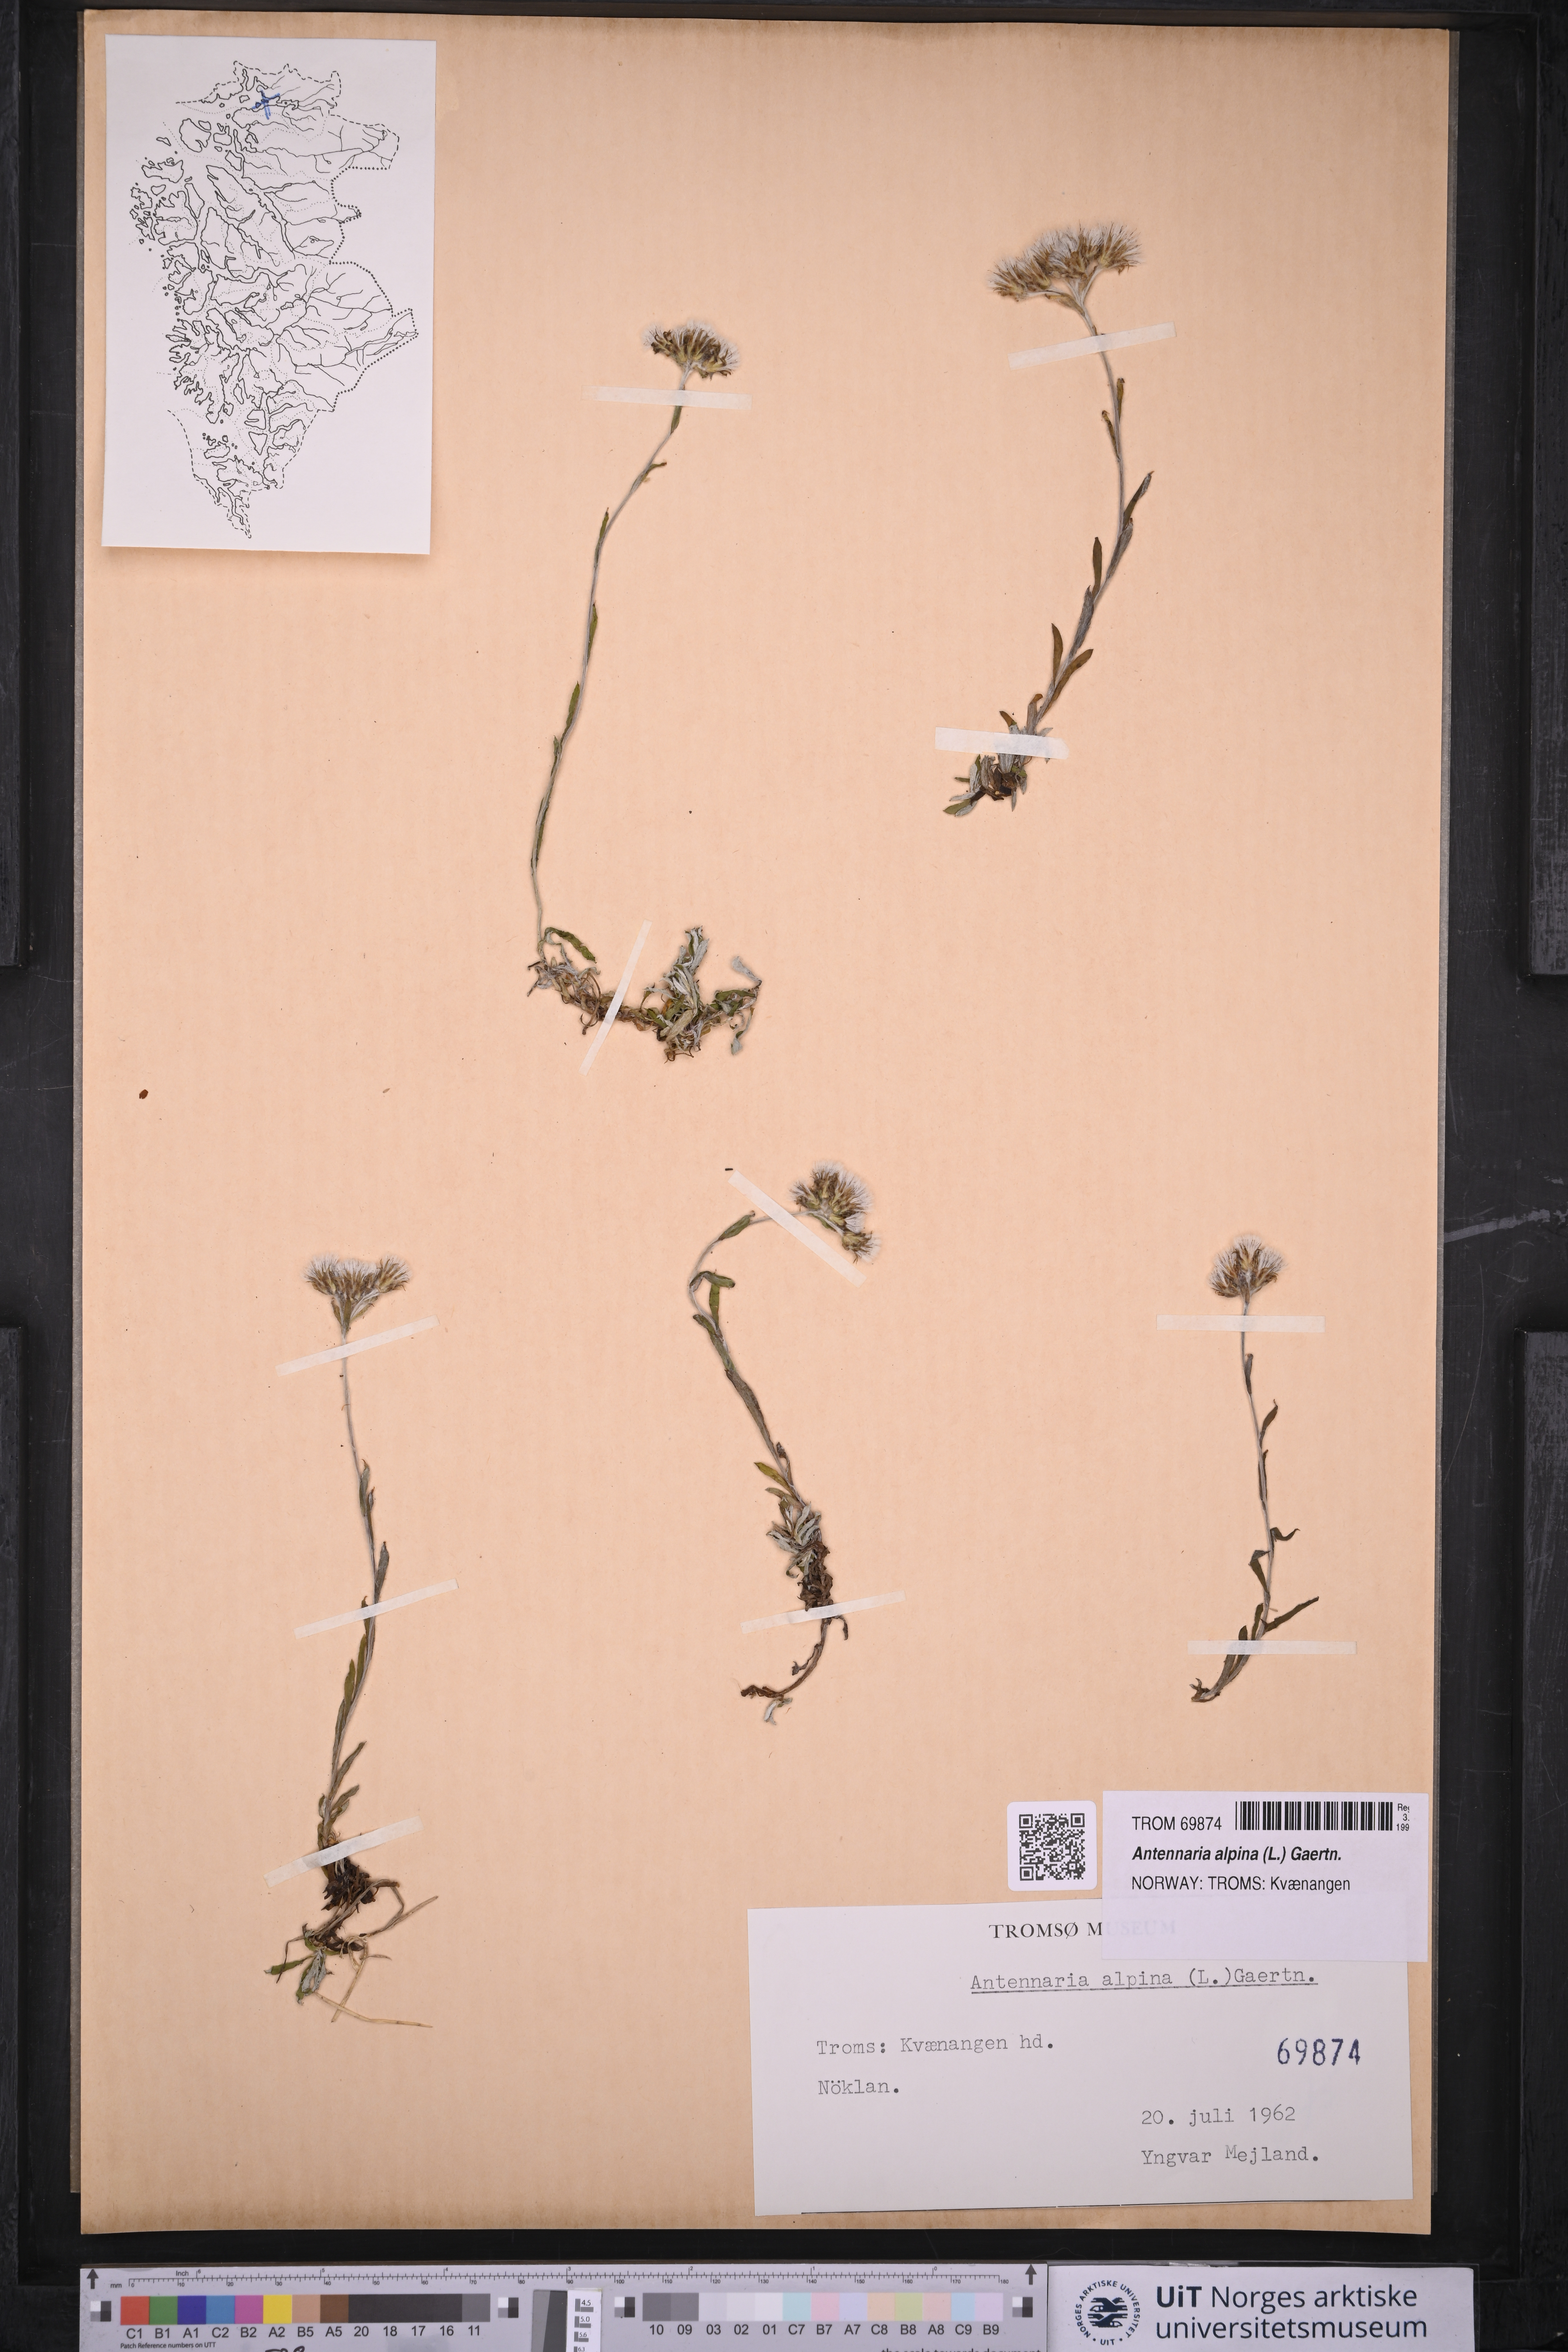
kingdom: Plantae
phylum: Tracheophyta
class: Magnoliopsida
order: Asterales
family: Asteraceae
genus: Antennaria
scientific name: Antennaria alpina
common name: Alpine pussytoes
